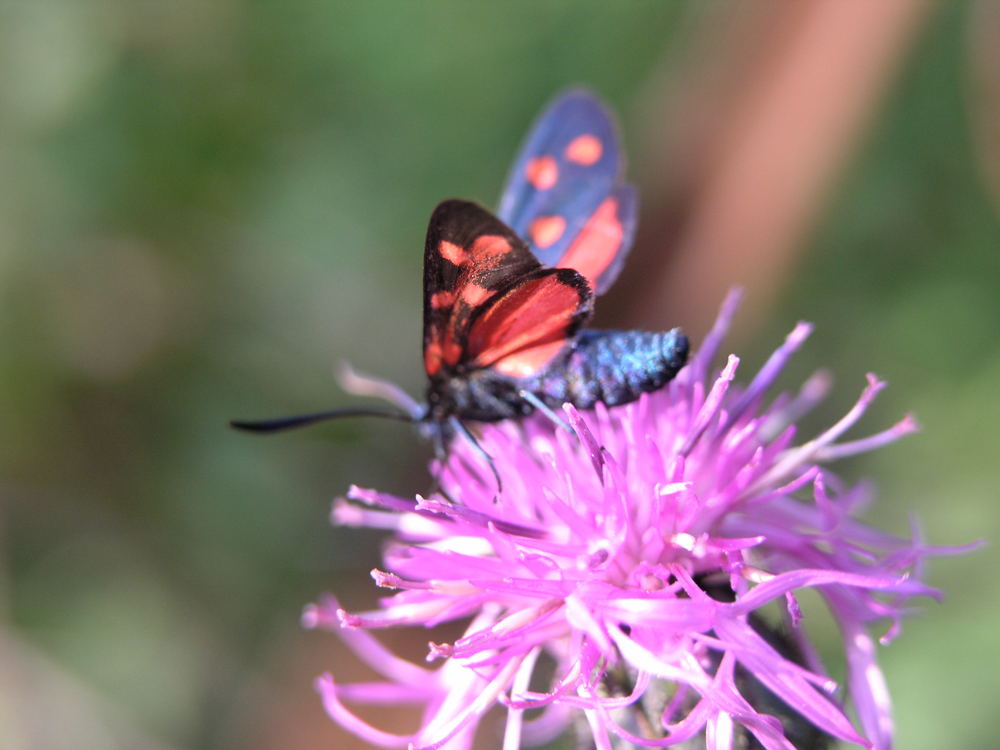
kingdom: Animalia
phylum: Arthropoda
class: Insecta
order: Lepidoptera
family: Zygaenidae
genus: Zygaena
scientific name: Zygaena transalpina
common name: Southern six spot burnet
